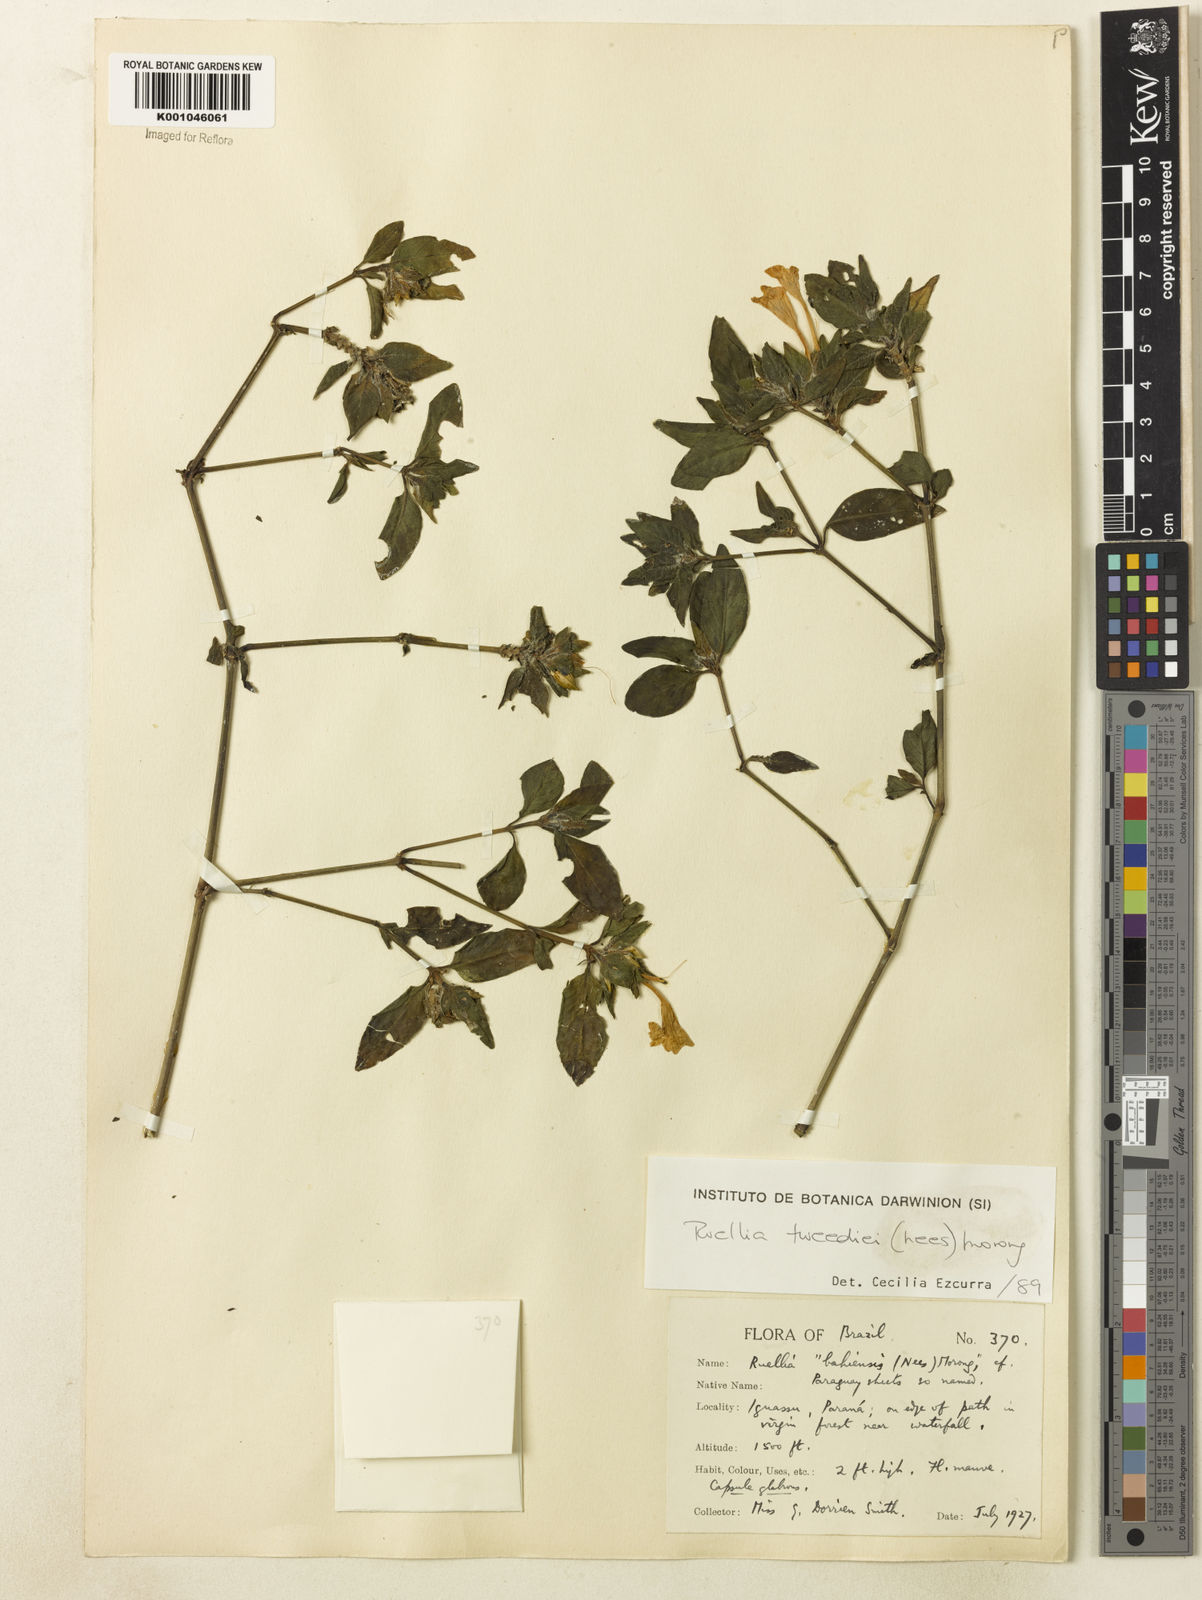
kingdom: Plantae
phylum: Tracheophyta
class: Magnoliopsida
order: Lamiales
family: Acanthaceae
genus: Ruellia
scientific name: Ruellia erythropus
